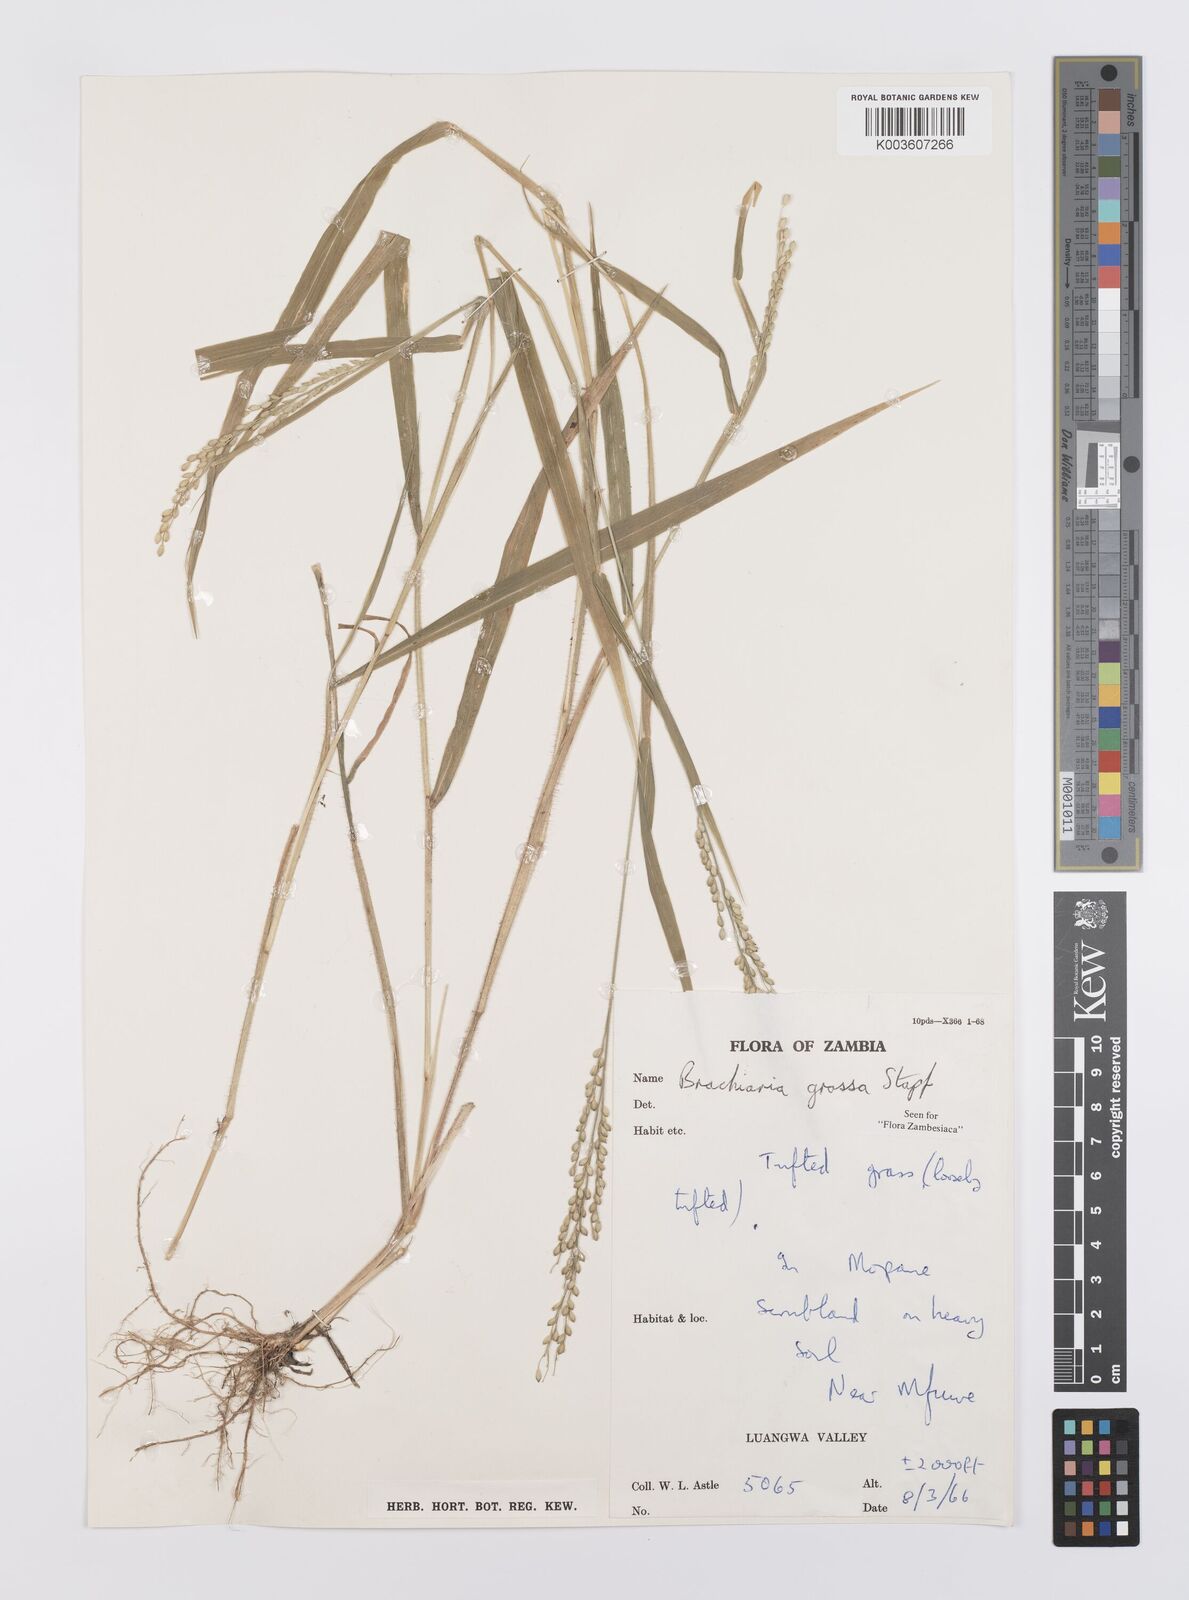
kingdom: Plantae
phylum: Tracheophyta
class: Liliopsida
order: Poales
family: Poaceae
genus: Urochloa
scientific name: Urochloa Brachiaria grossa
